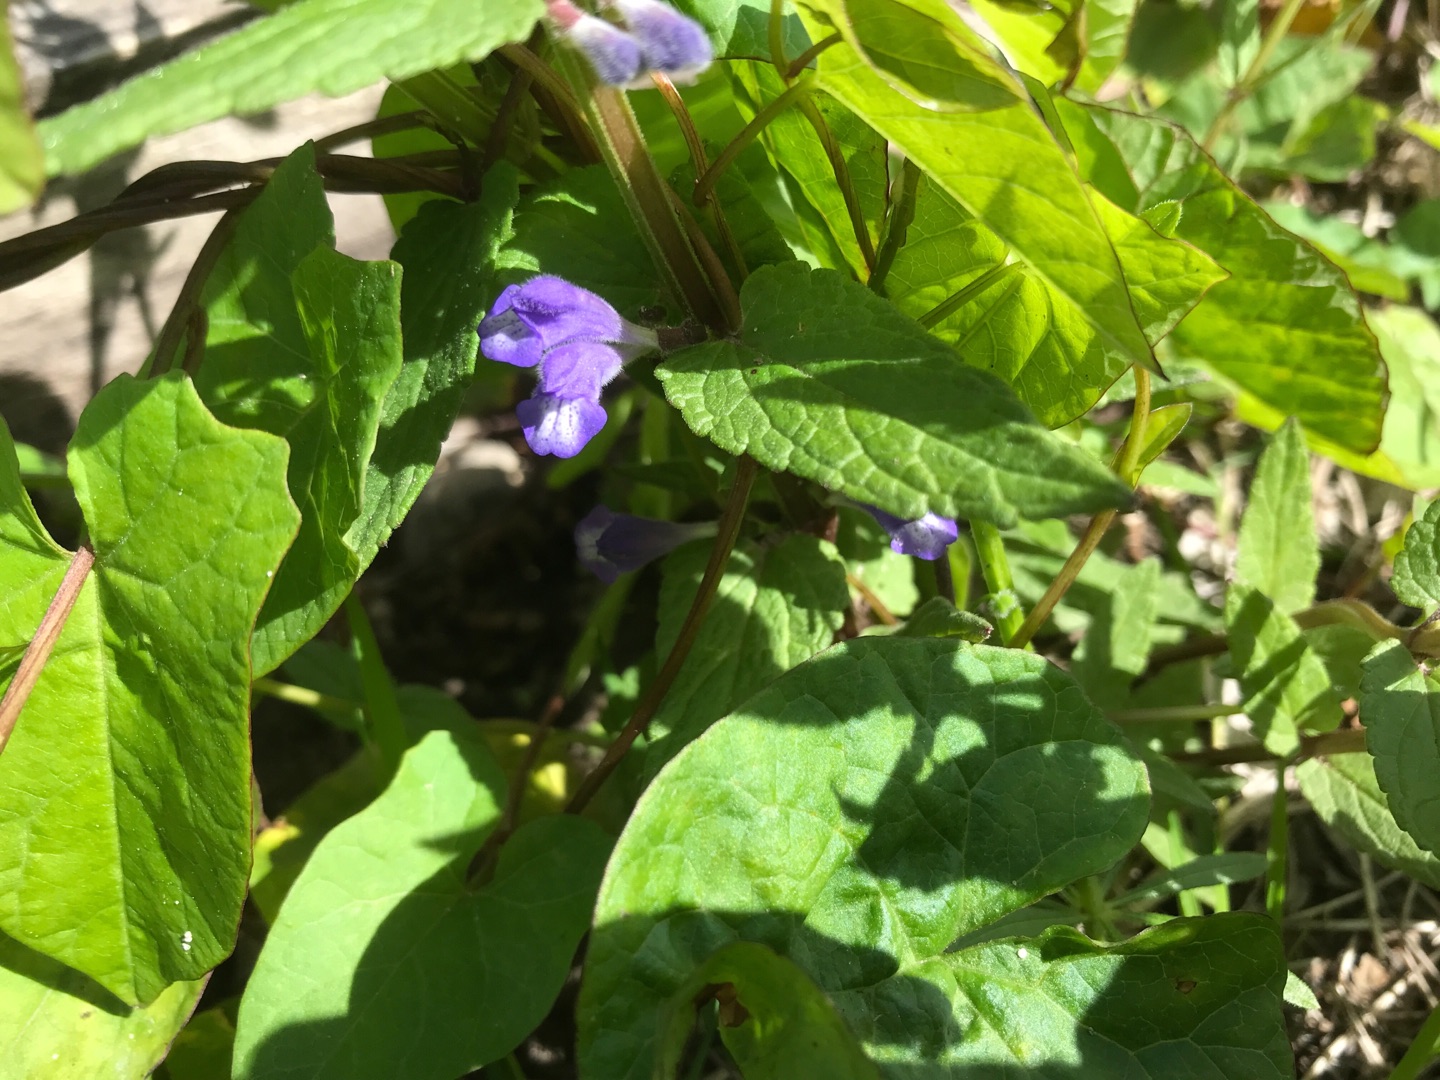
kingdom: Plantae
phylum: Tracheophyta
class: Magnoliopsida
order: Lamiales
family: Lamiaceae
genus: Scutellaria
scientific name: Scutellaria galericulata
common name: Almindelig skjolddrager
